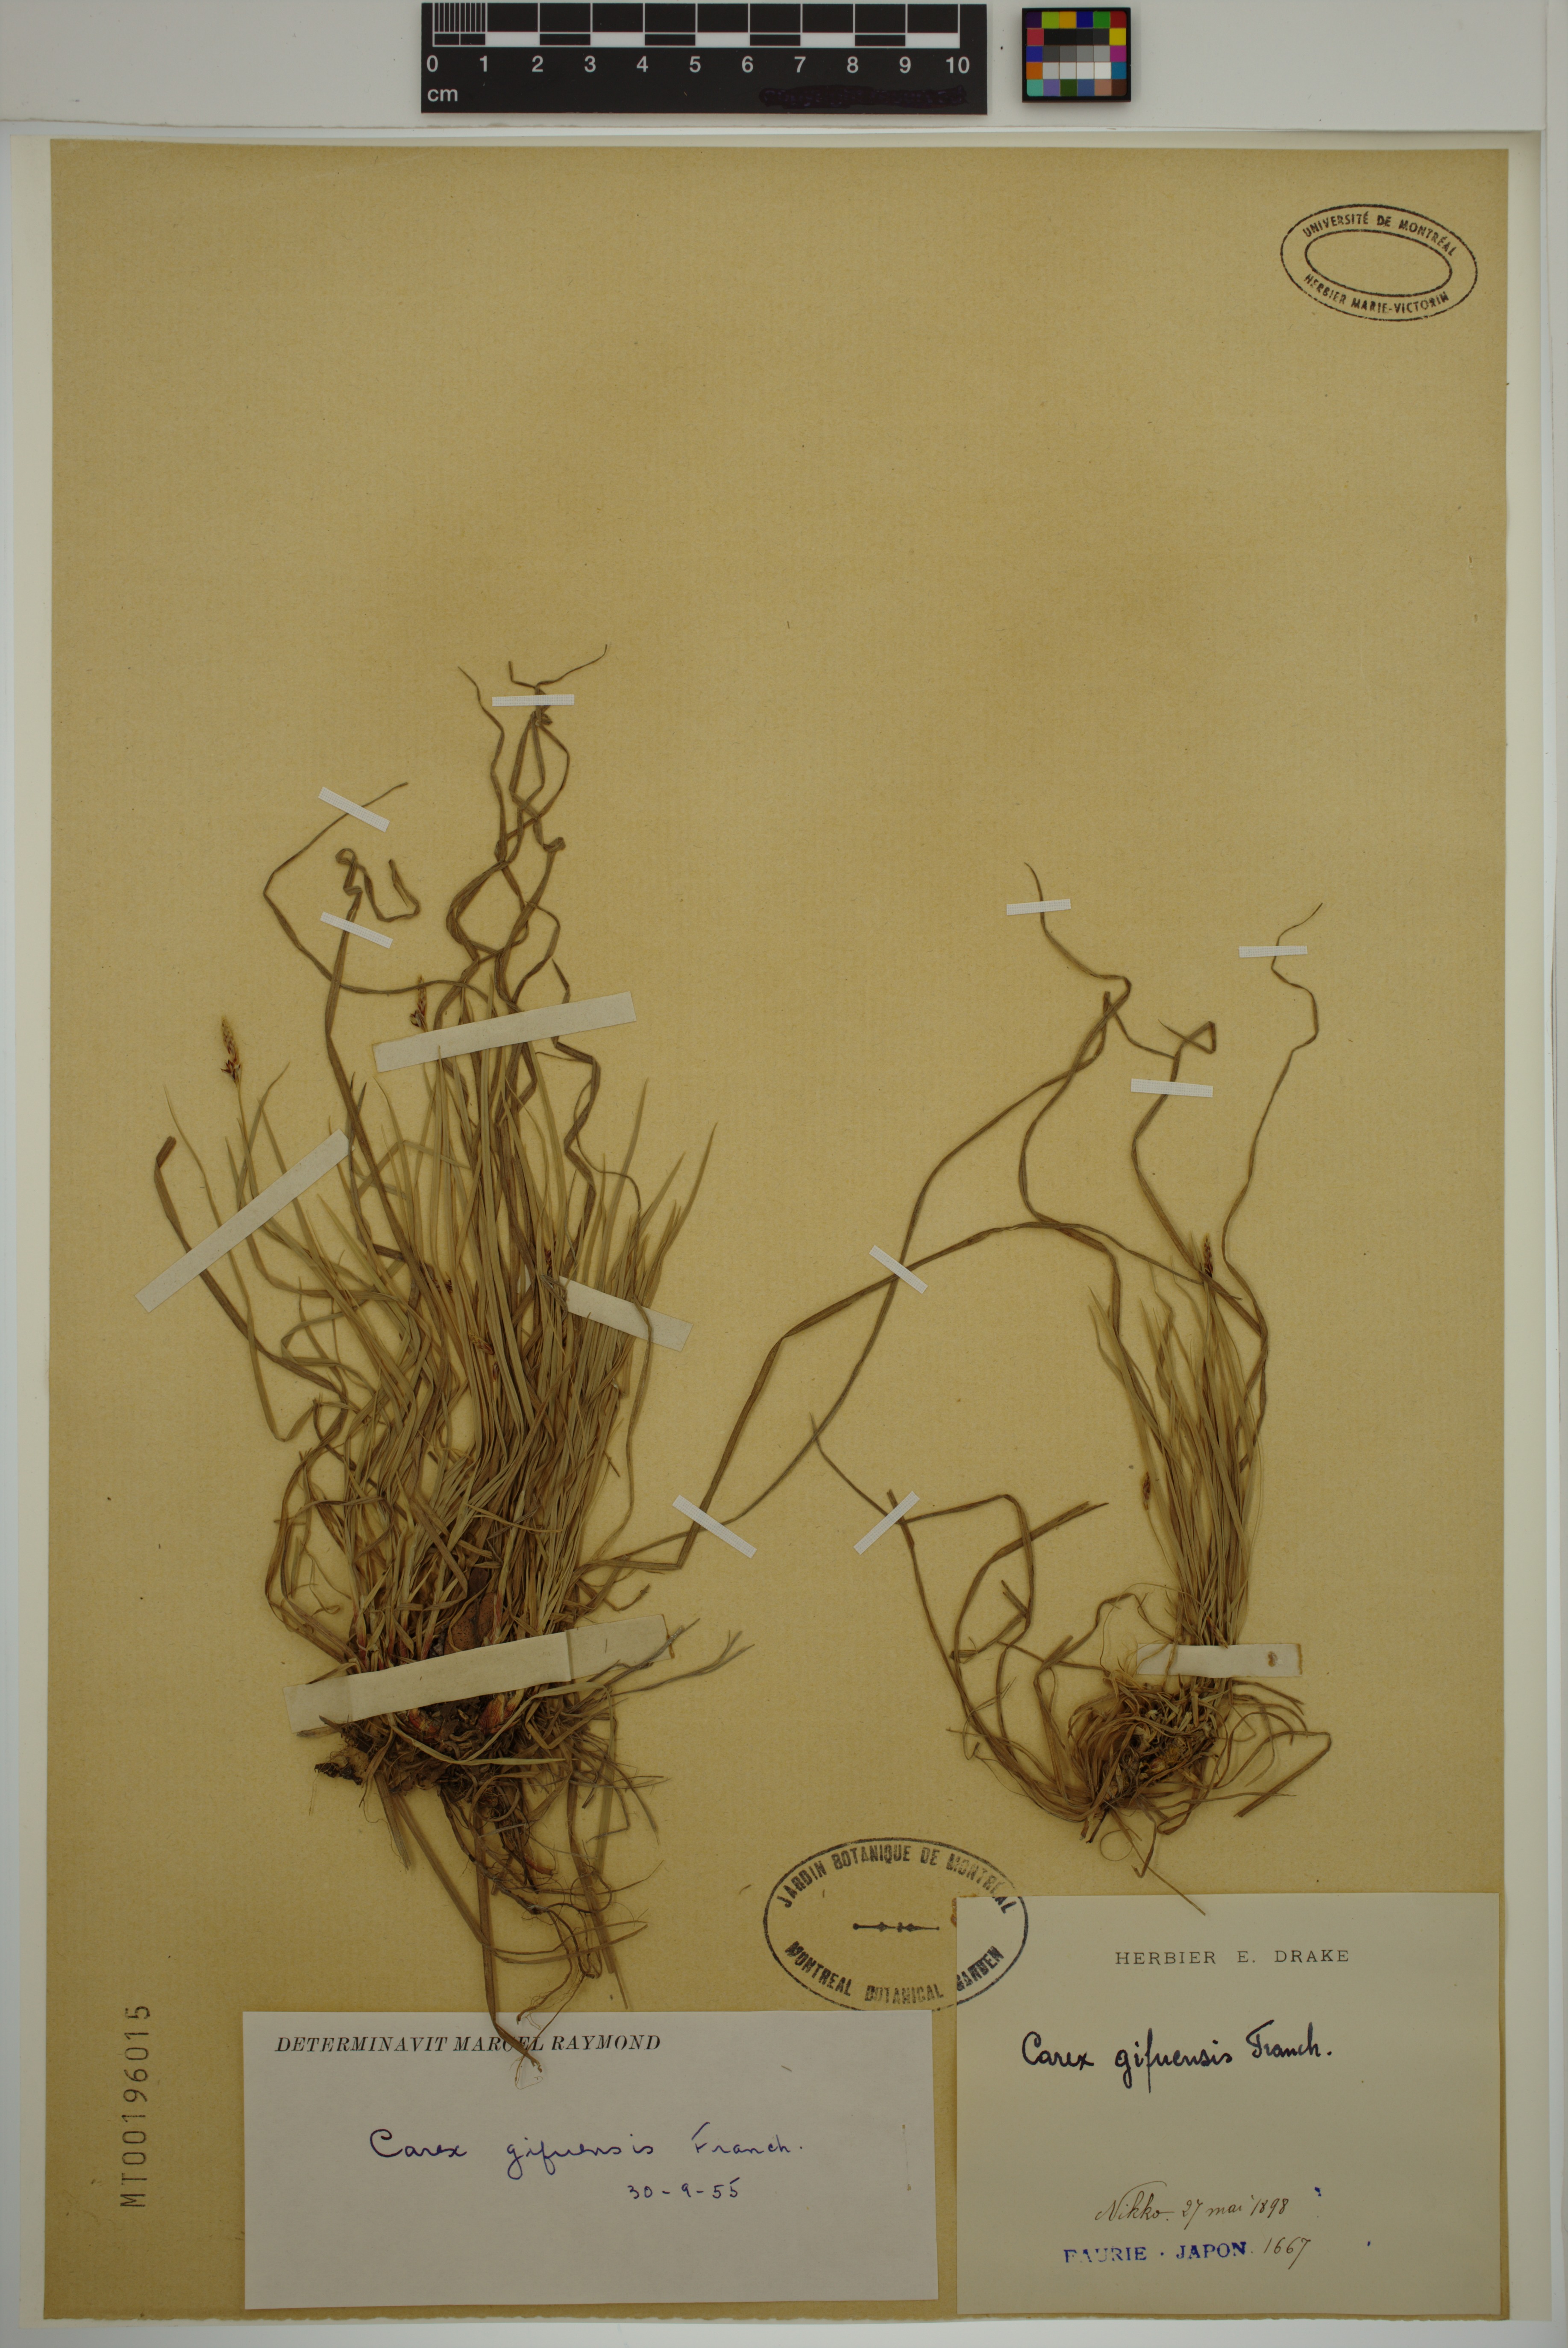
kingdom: Plantae
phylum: Tracheophyta
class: Liliopsida
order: Poales
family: Cyperaceae
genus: Carex
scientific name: Carex gifuensis
